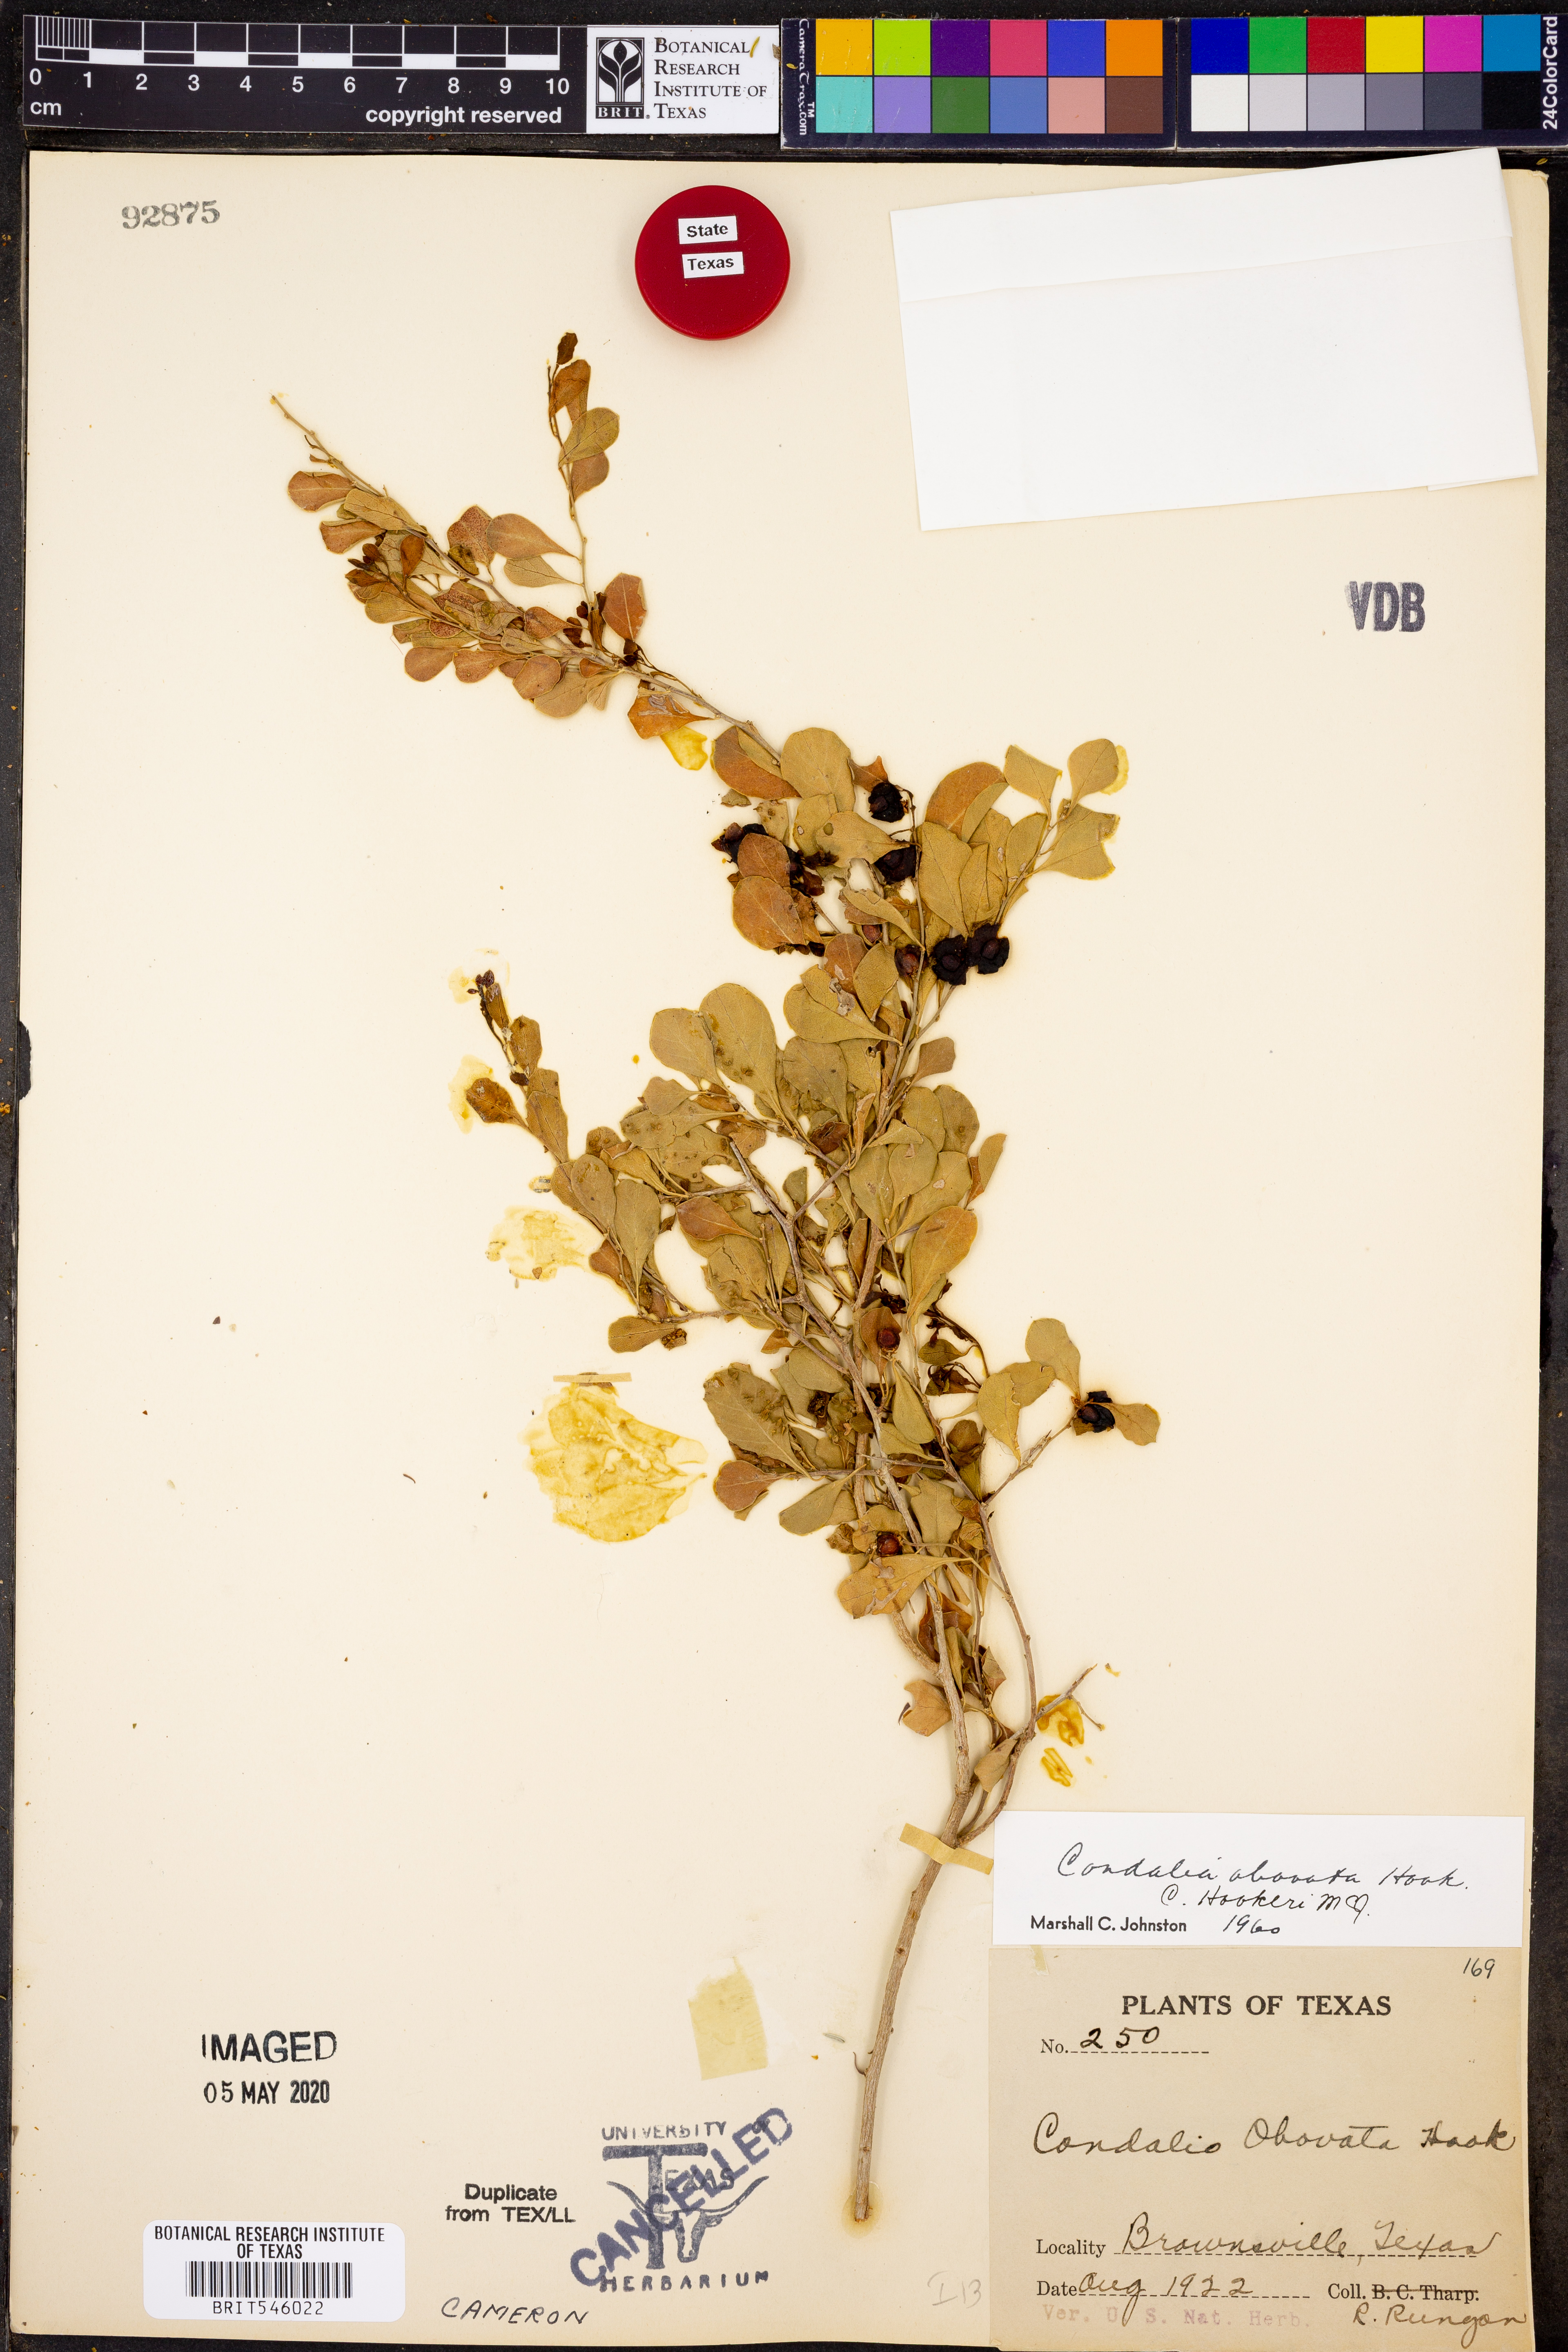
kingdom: Plantae
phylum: Tracheophyta
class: Magnoliopsida
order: Rosales
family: Rhamnaceae
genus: Condalia
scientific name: Condalia hookeri
